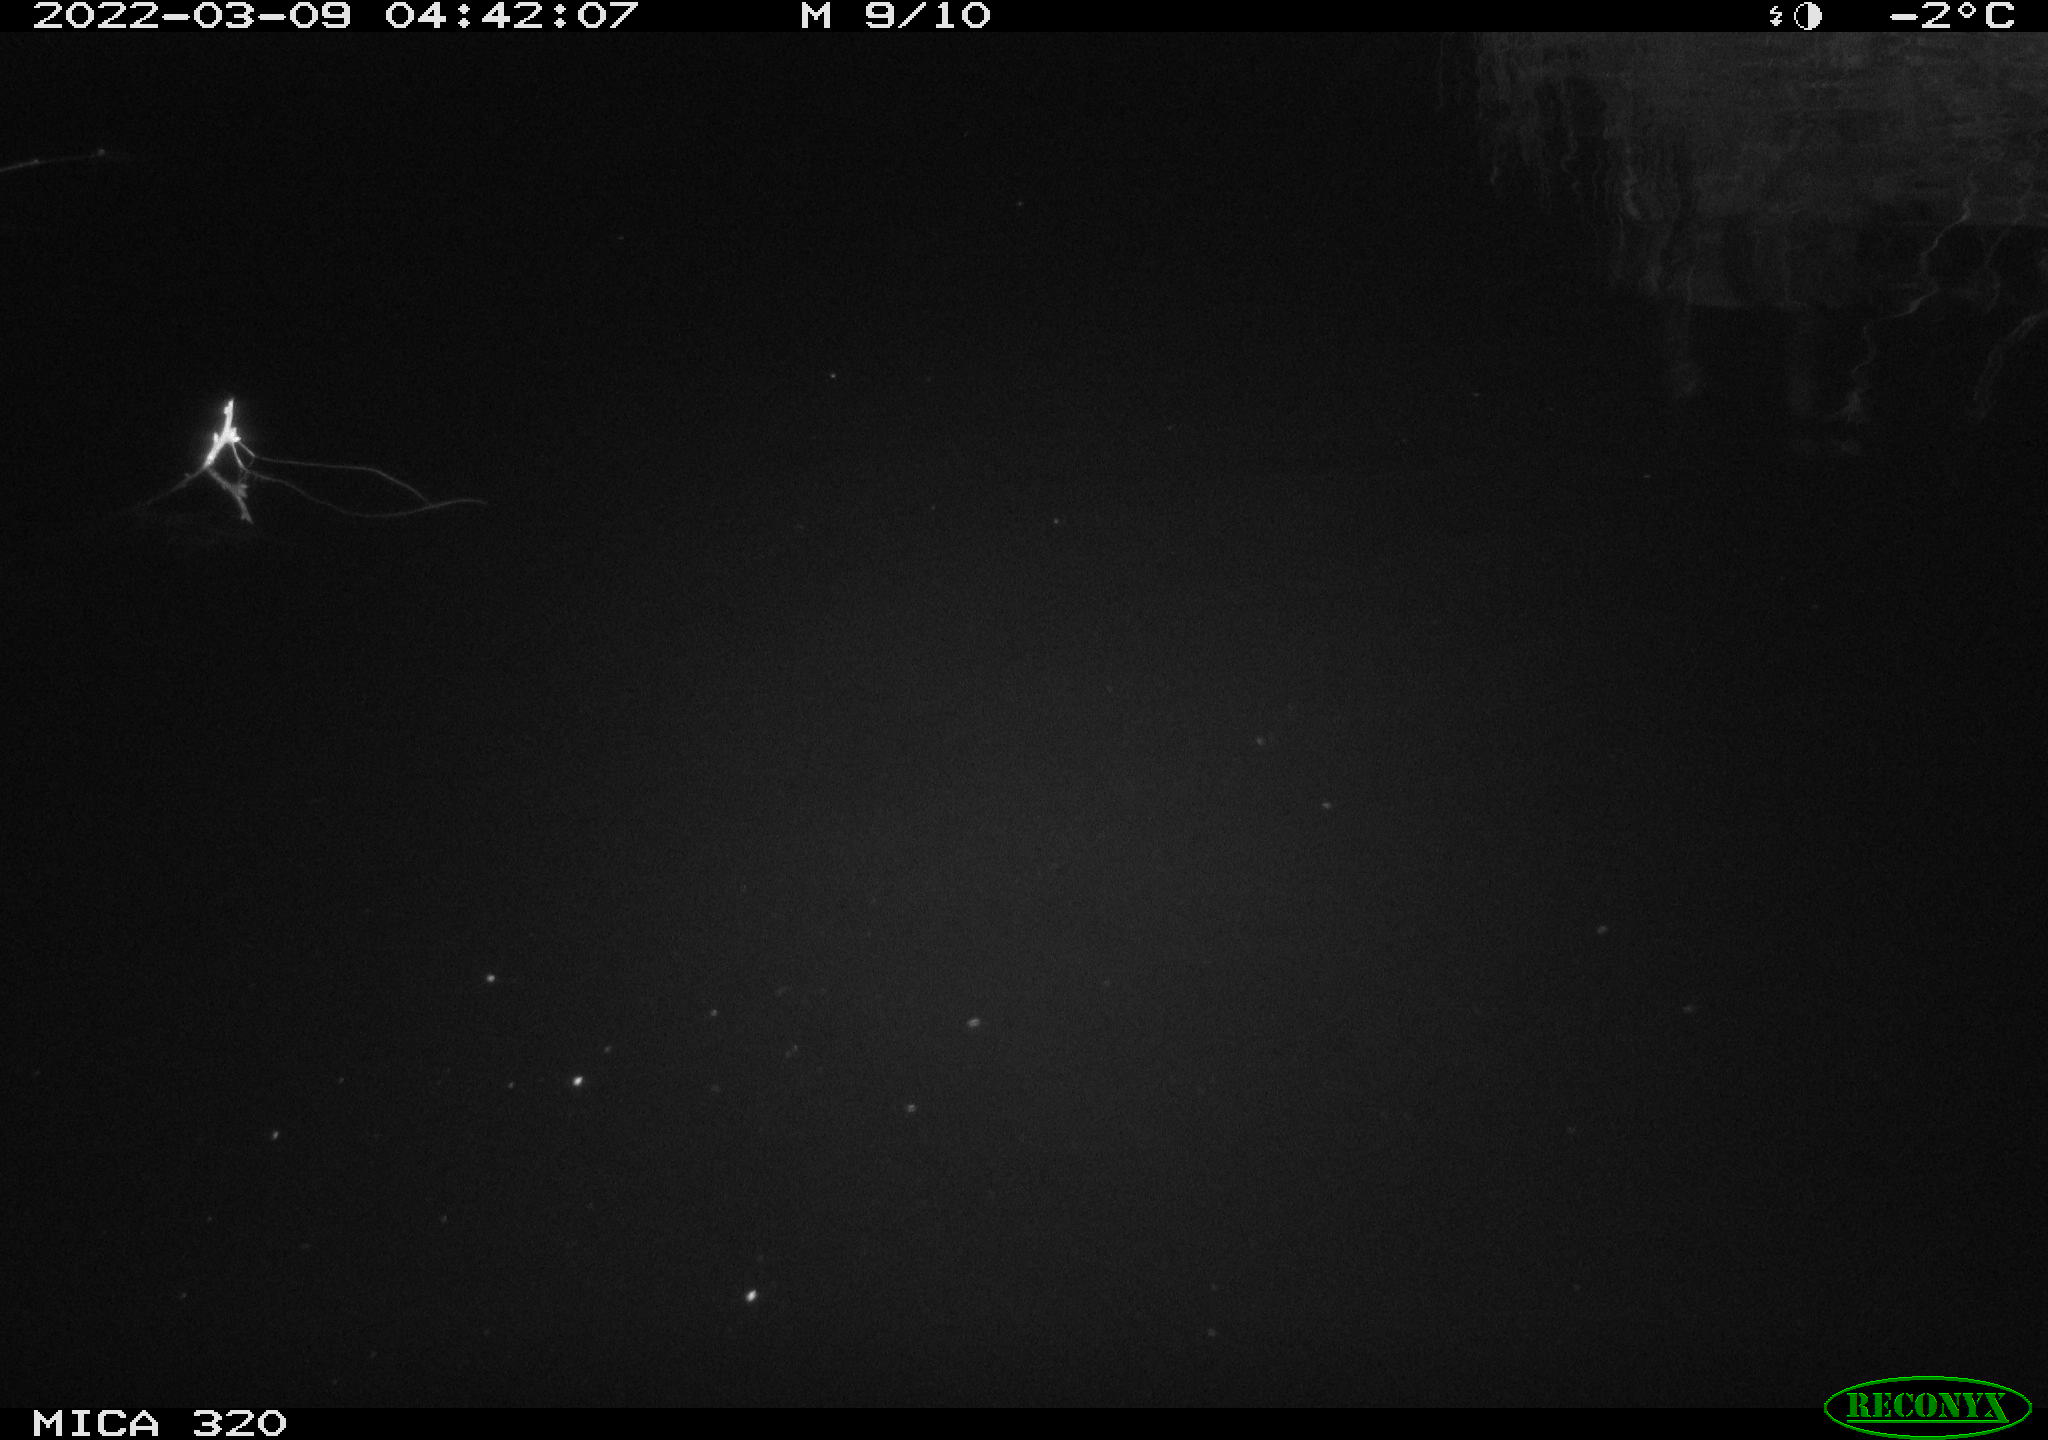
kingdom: Animalia
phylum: Chordata
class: Aves
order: Anseriformes
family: Anatidae
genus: Anas
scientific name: Anas platyrhynchos
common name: Mallard
